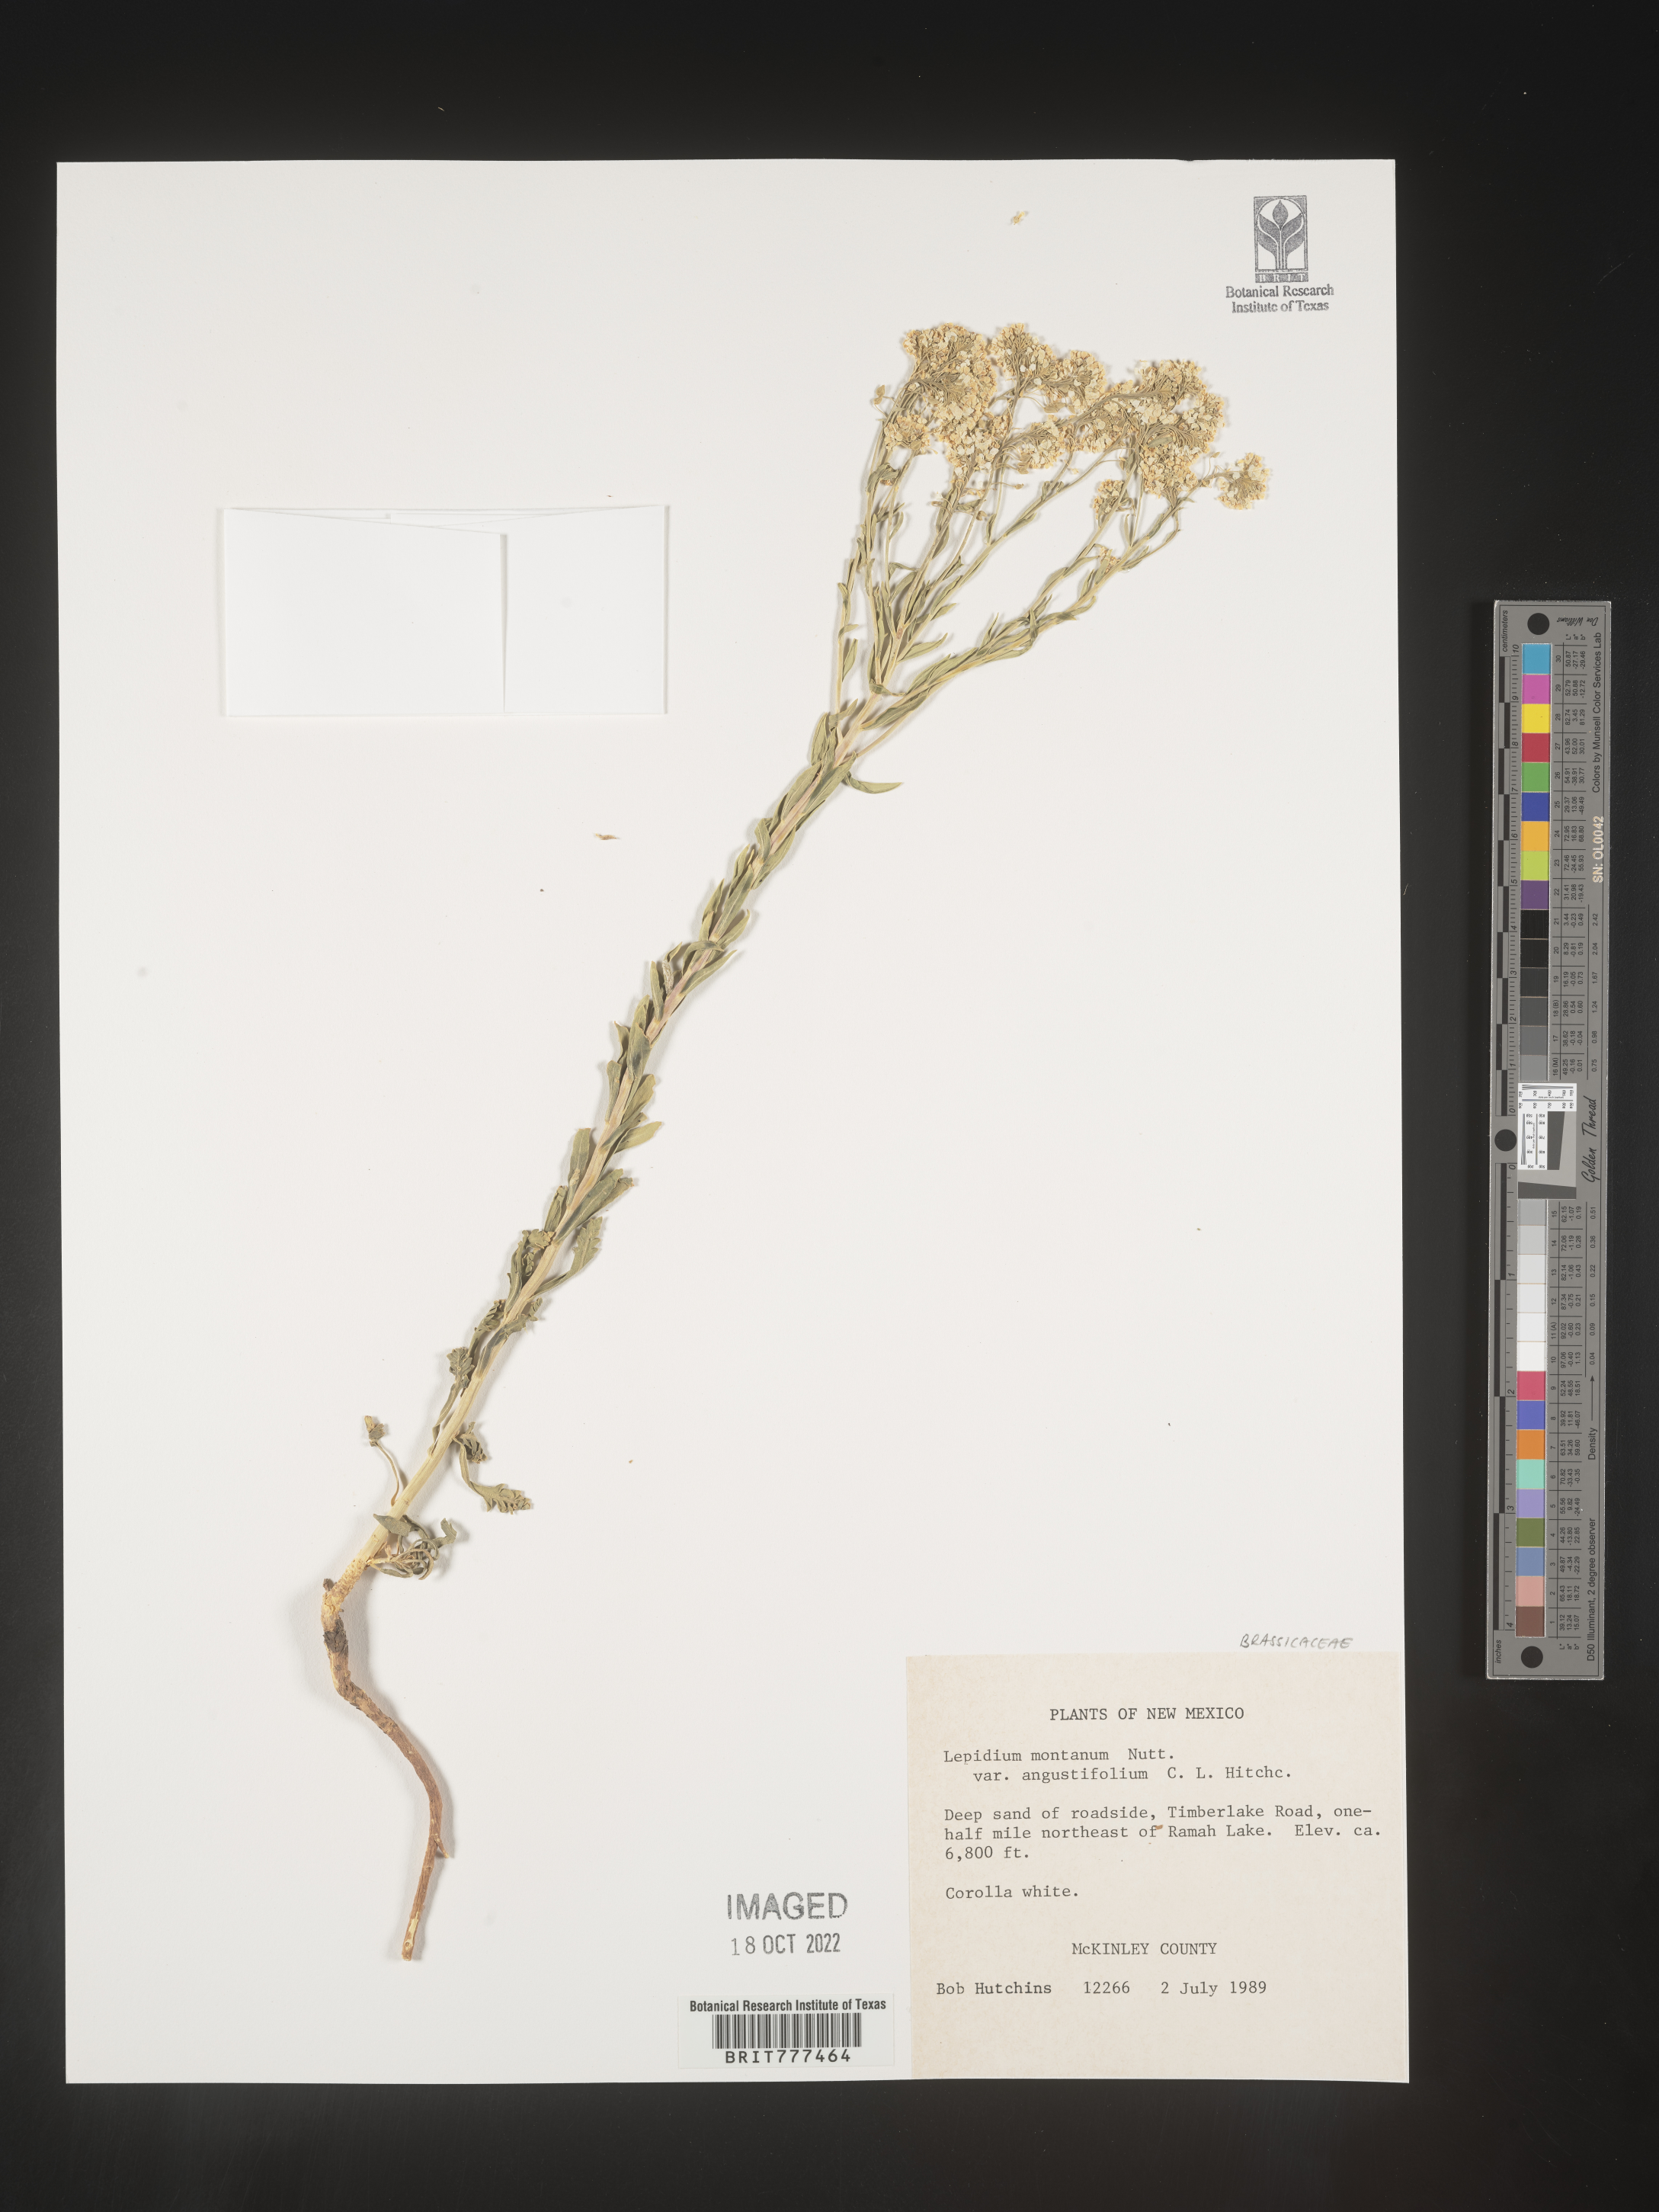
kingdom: Plantae
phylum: Tracheophyta
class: Magnoliopsida
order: Brassicales
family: Brassicaceae
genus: Lepidium
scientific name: Lepidium montanum
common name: Mountain pepperplant
